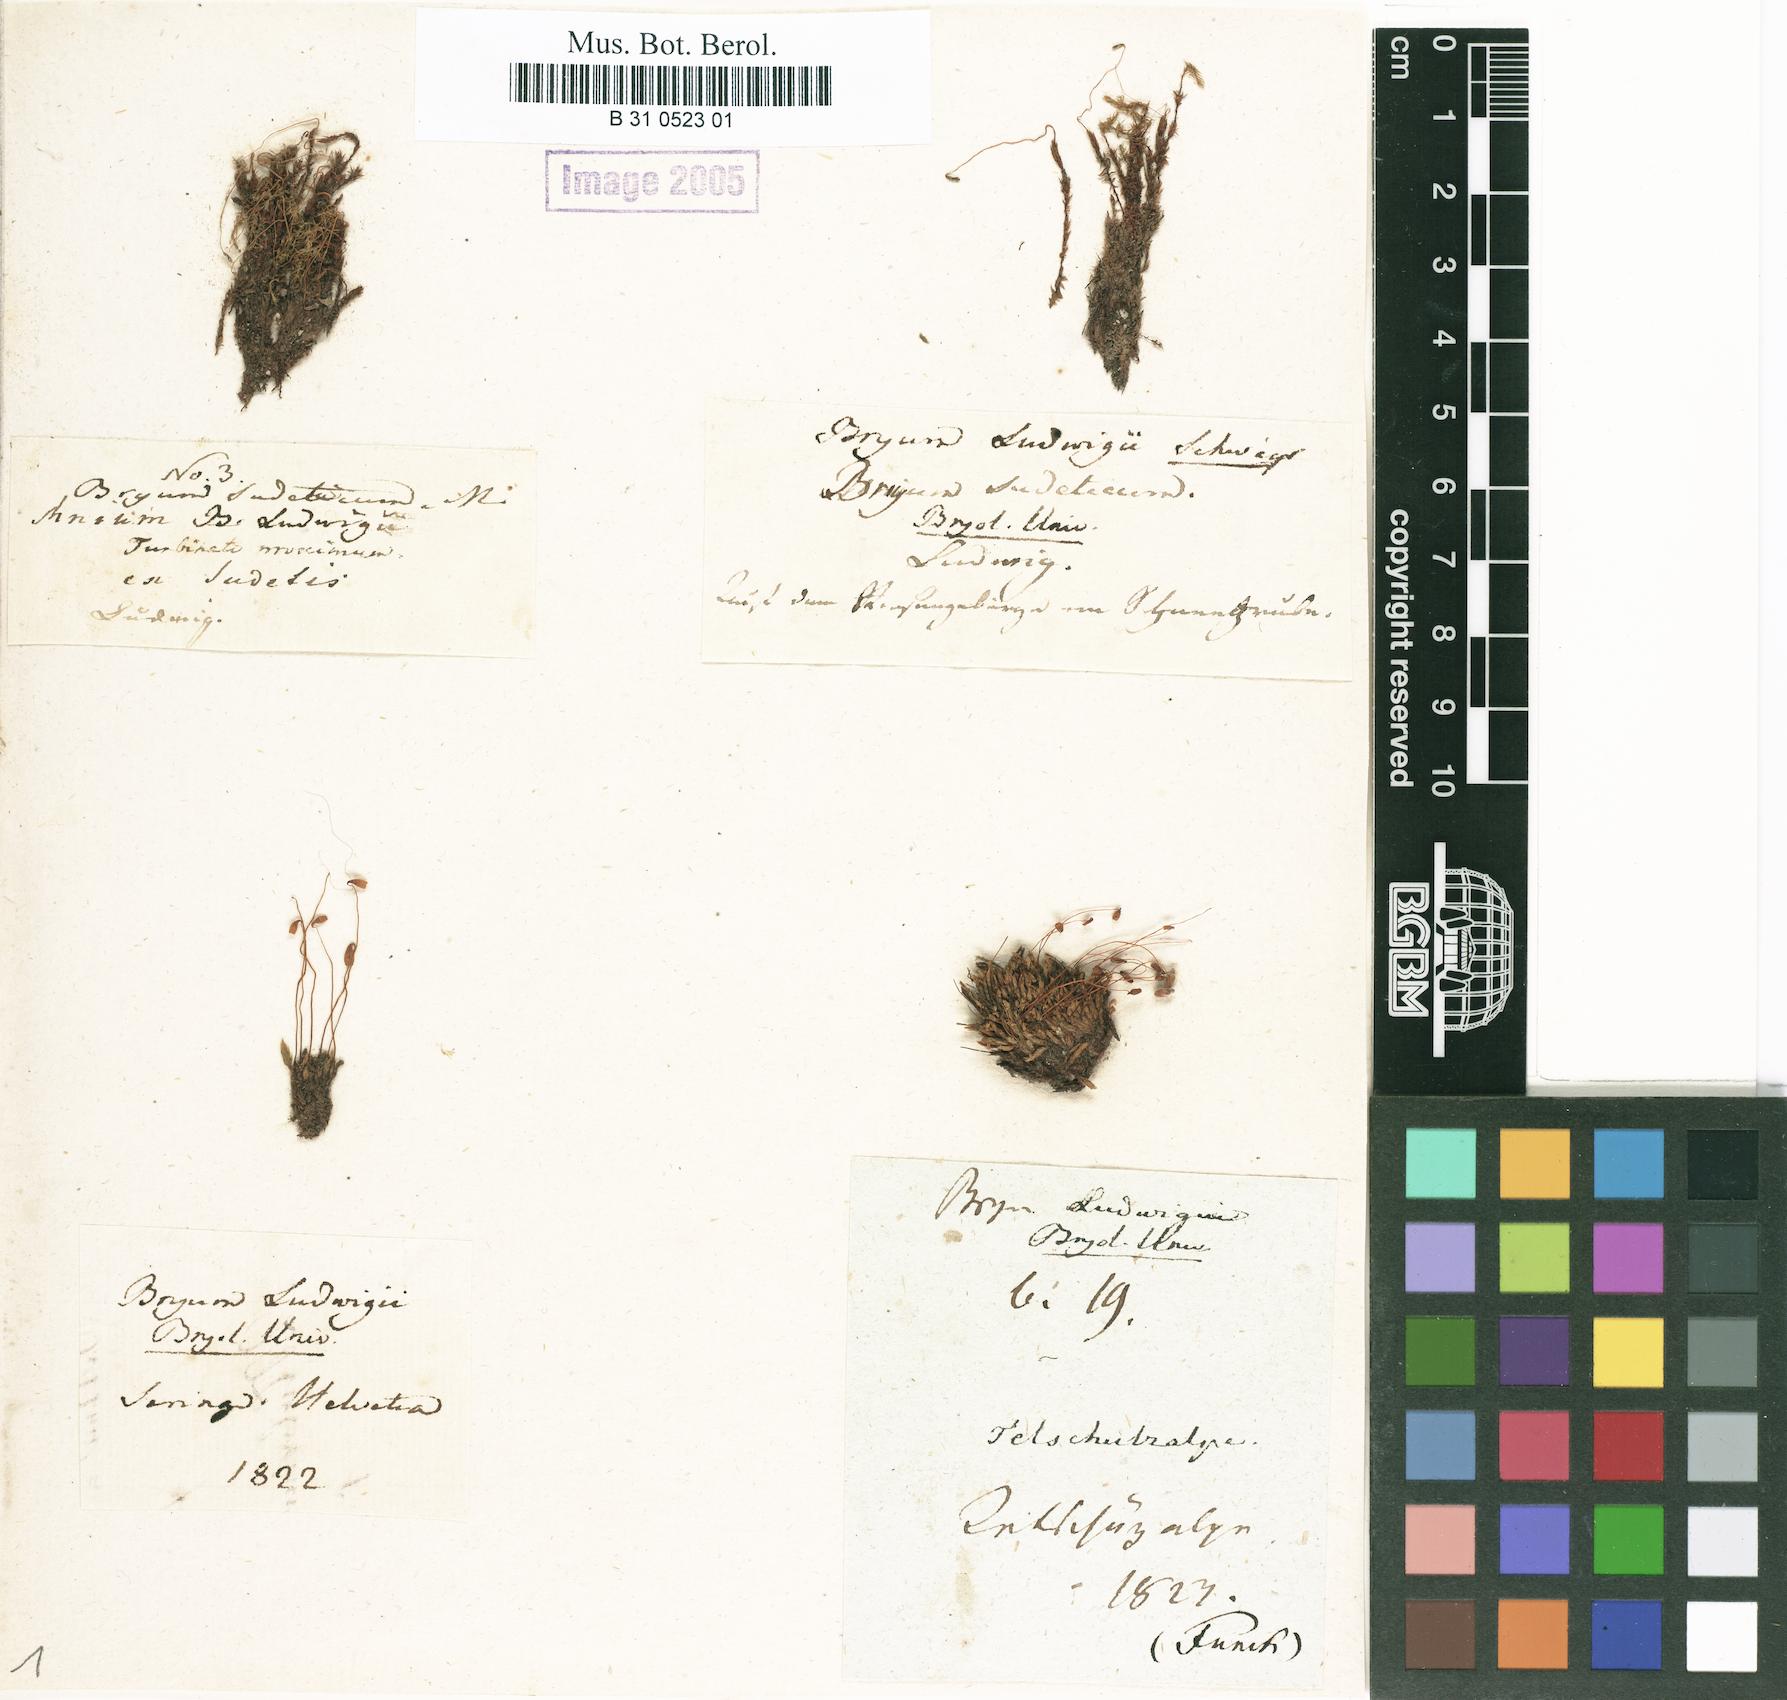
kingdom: Plantae
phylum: Bryophyta
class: Bryopsida
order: Bryales
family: Mniaceae
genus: Pohlia
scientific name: Pohlia ludwigii
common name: Ludwig's thread-moss
